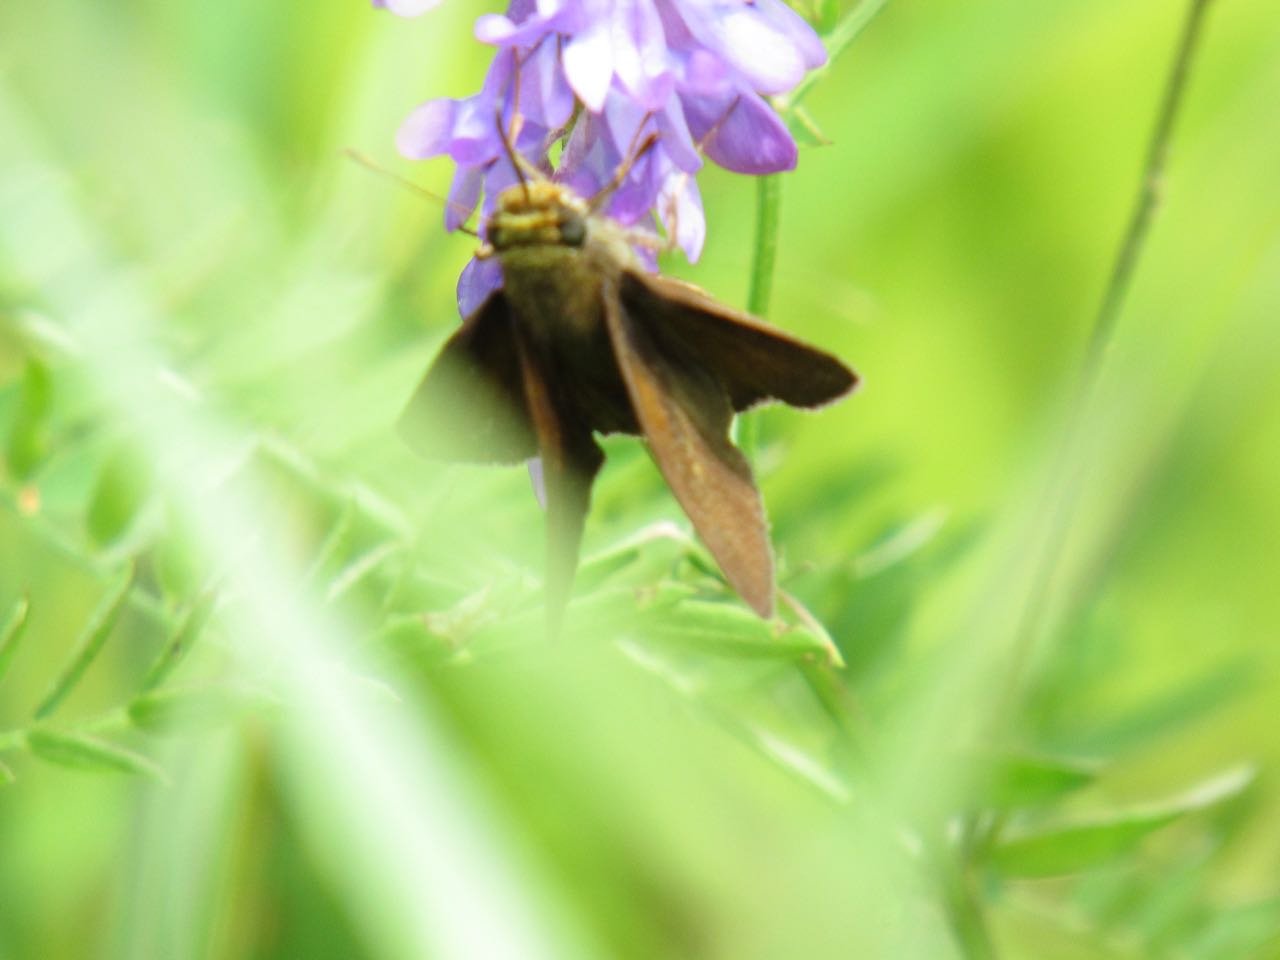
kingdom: Animalia
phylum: Arthropoda
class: Insecta
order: Lepidoptera
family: Hesperiidae
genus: Polites
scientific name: Polites egeremet
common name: Northern Broken-Dash
